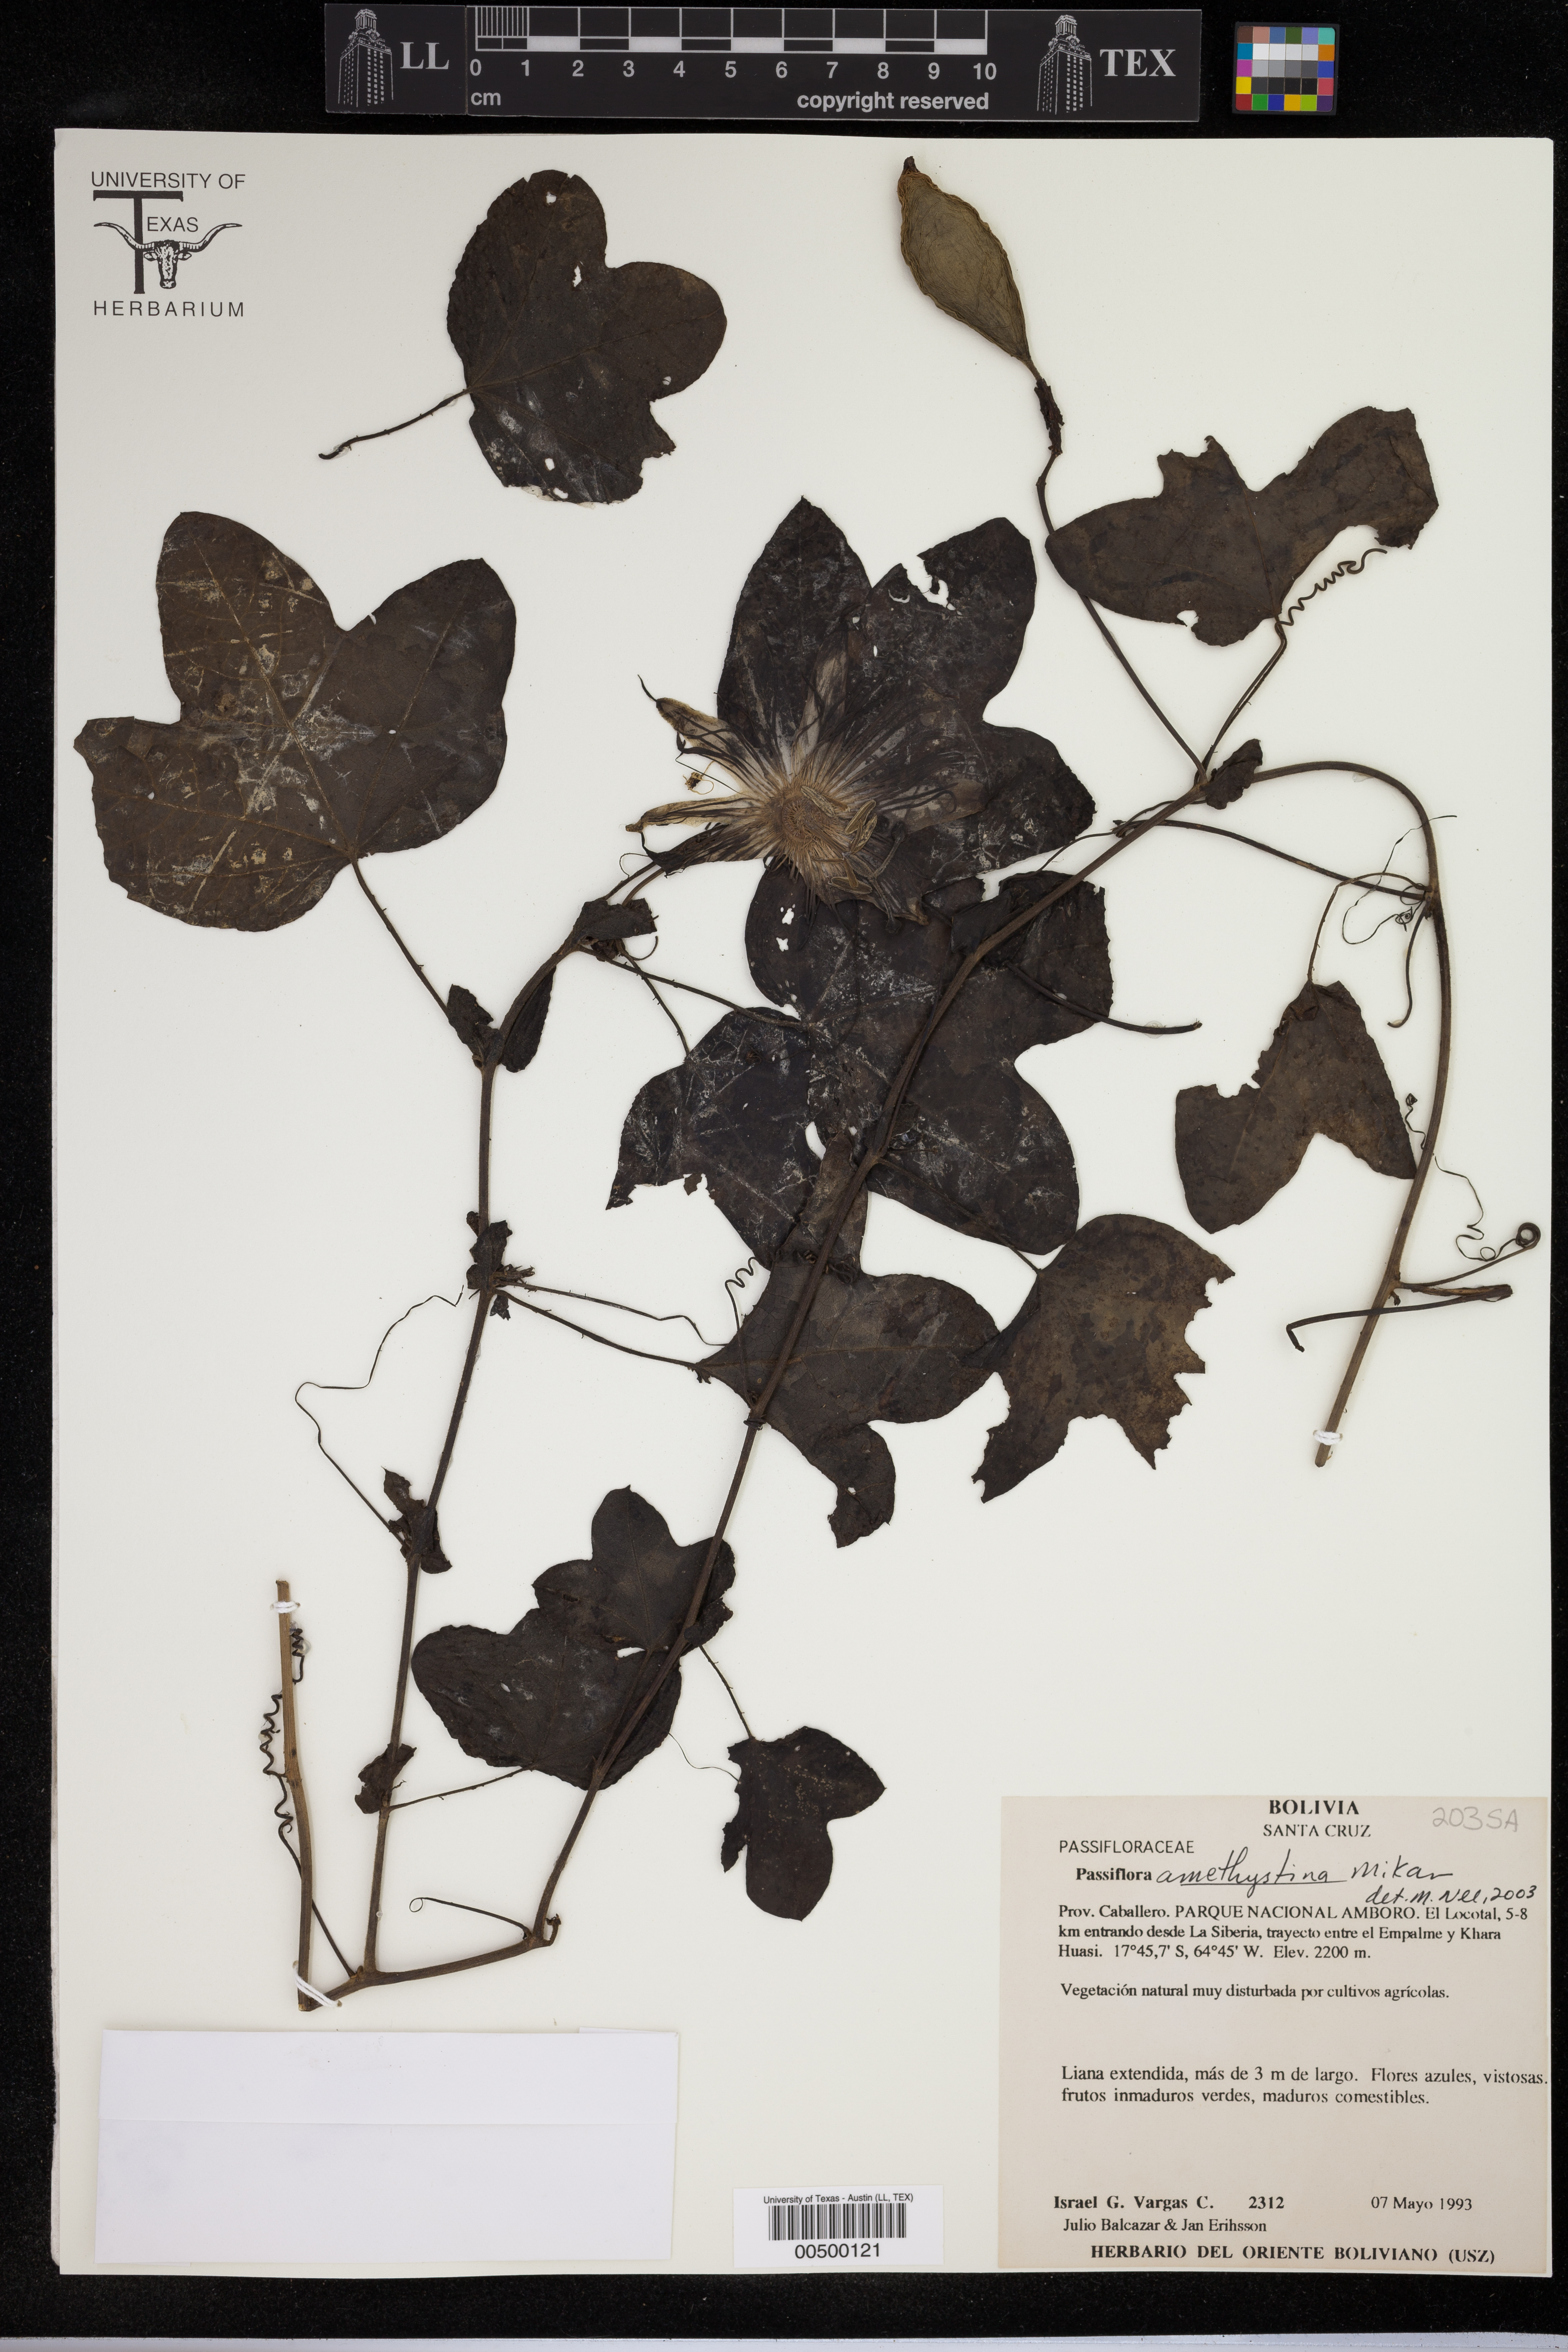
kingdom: Plantae
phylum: Tracheophyta
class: Magnoliopsida
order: Malpighiales
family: Passifloraceae
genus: Passiflora
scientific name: Passiflora amethystina
